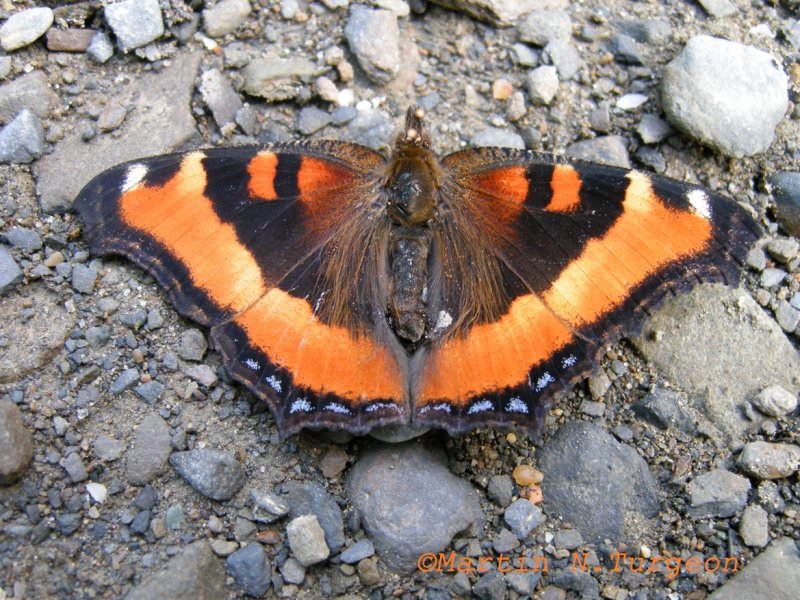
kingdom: Animalia
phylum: Arthropoda
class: Insecta
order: Lepidoptera
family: Nymphalidae
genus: Aglais
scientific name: Aglais milberti
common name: Milbert's Tortoiseshell
